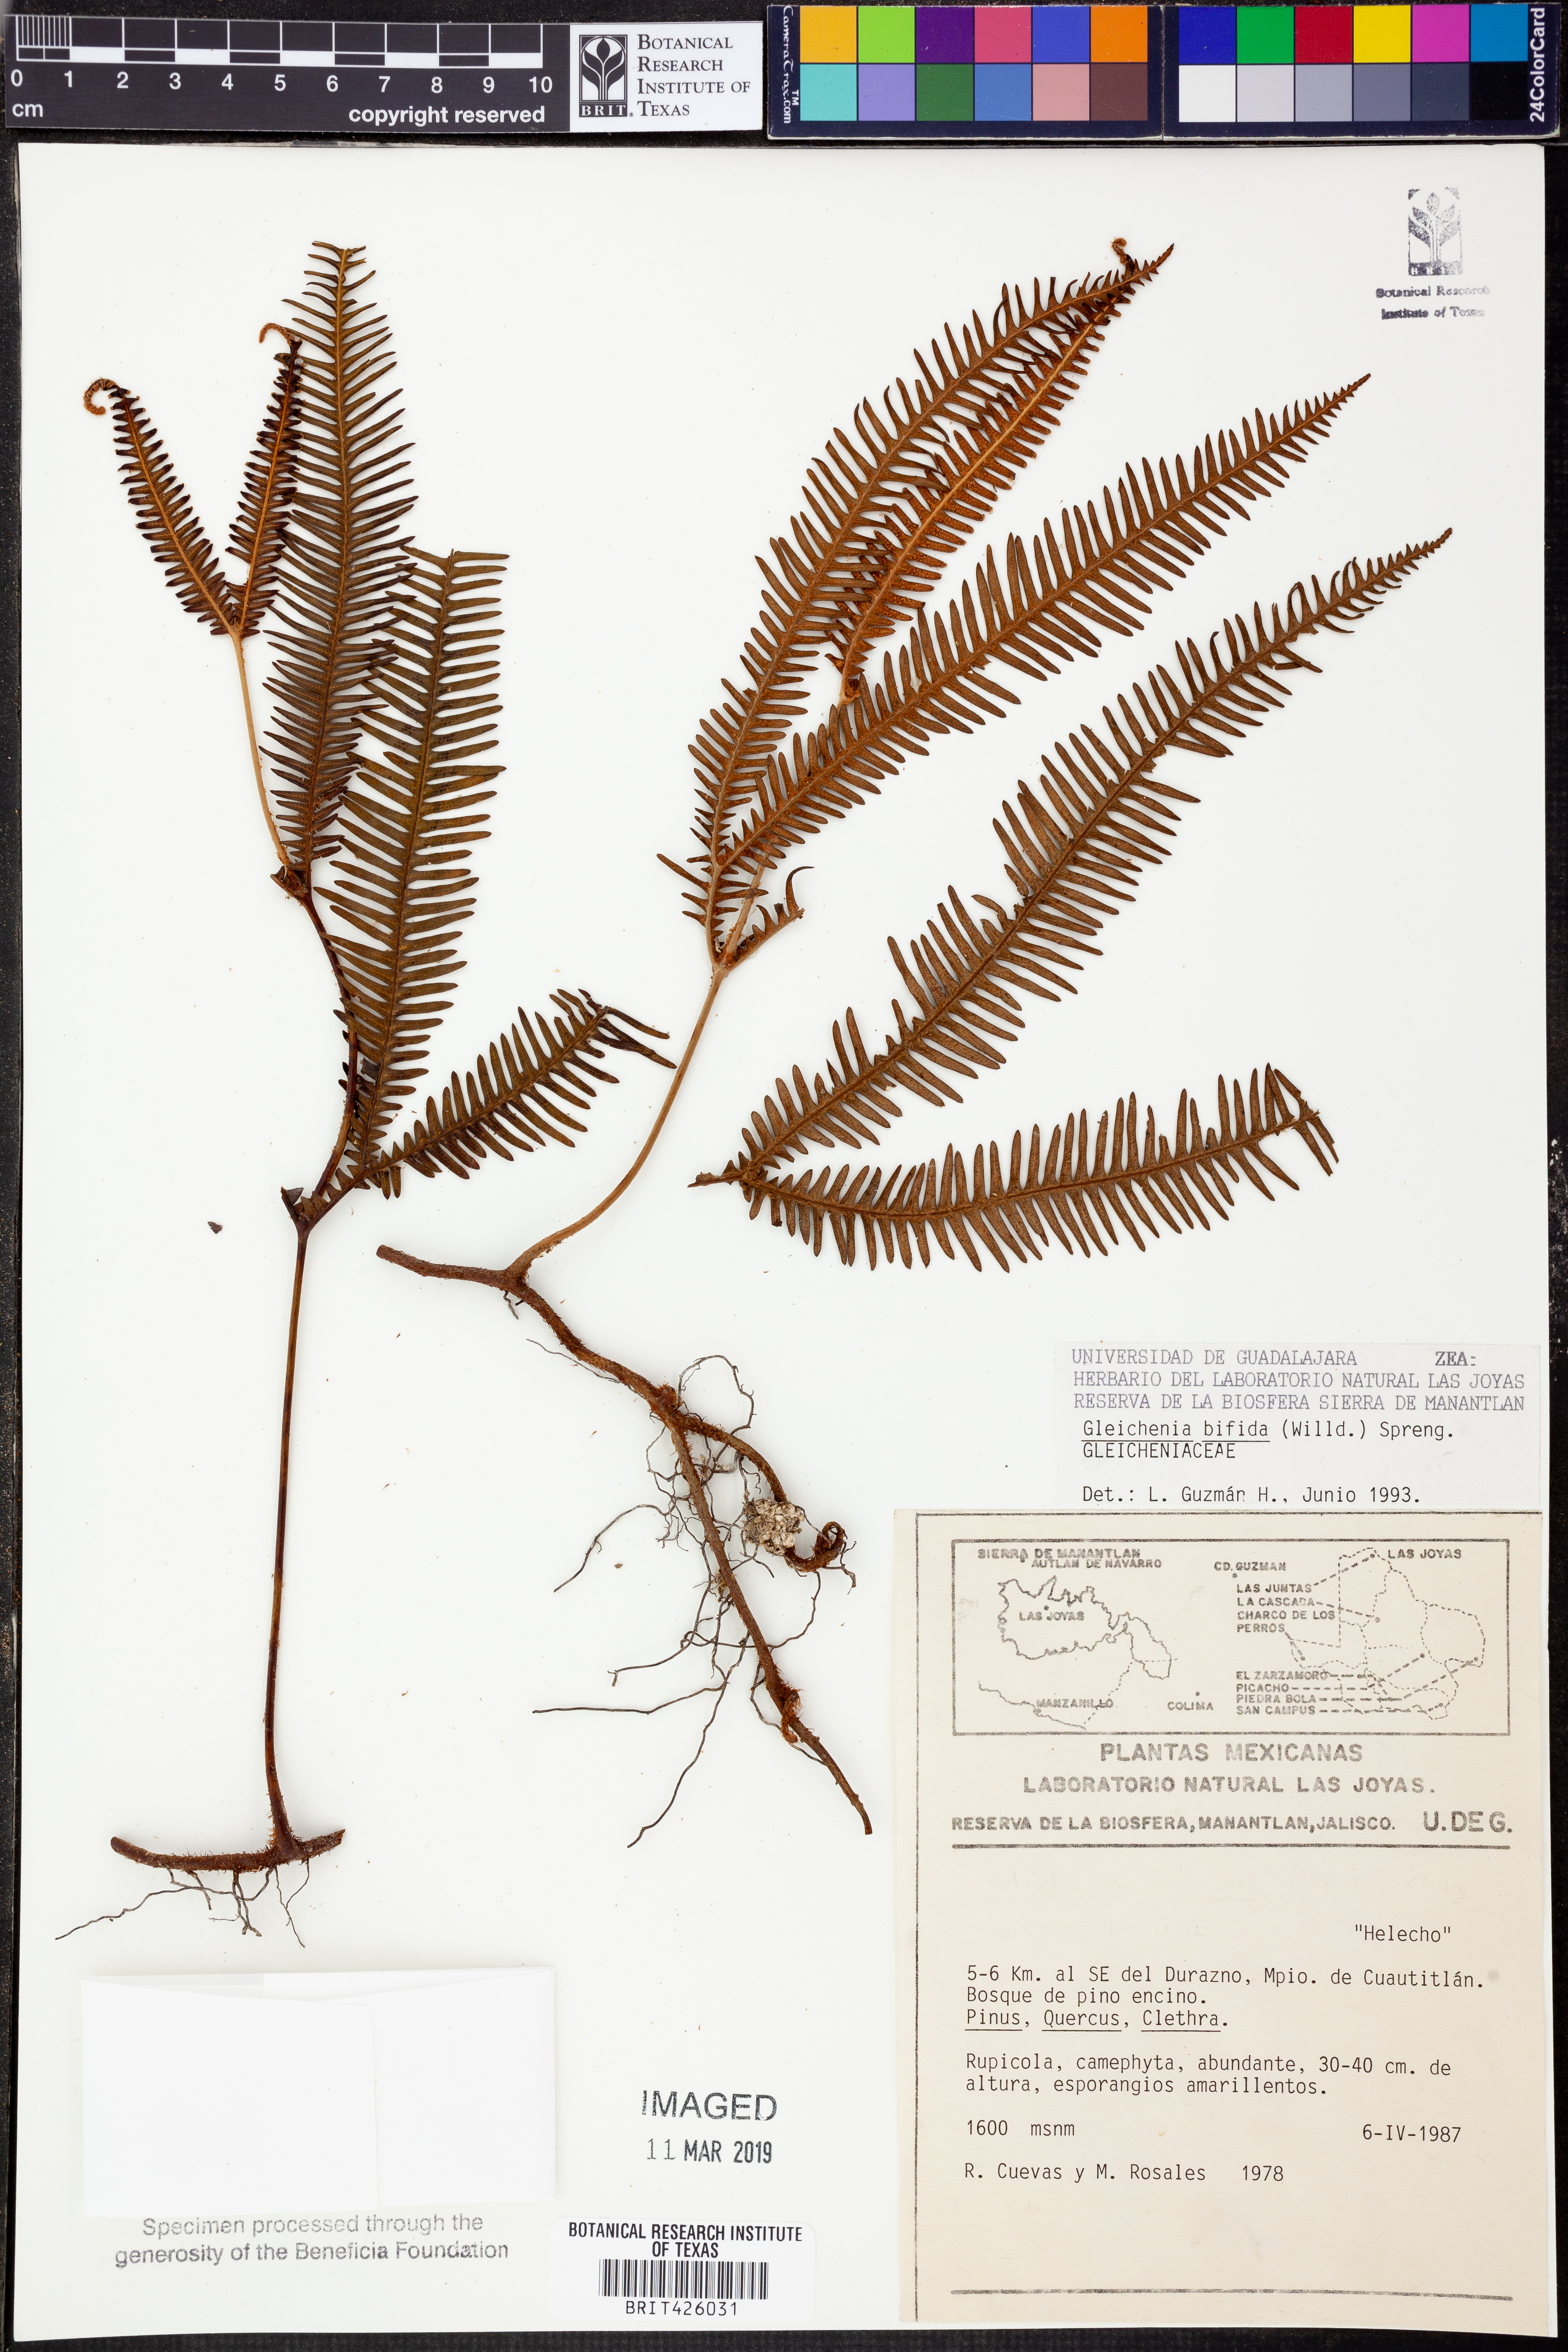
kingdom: Plantae
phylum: Tracheophyta
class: Polypodiopsida
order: Gleicheniales
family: Gleicheniaceae
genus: Sticherus
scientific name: Sticherus bifidus
